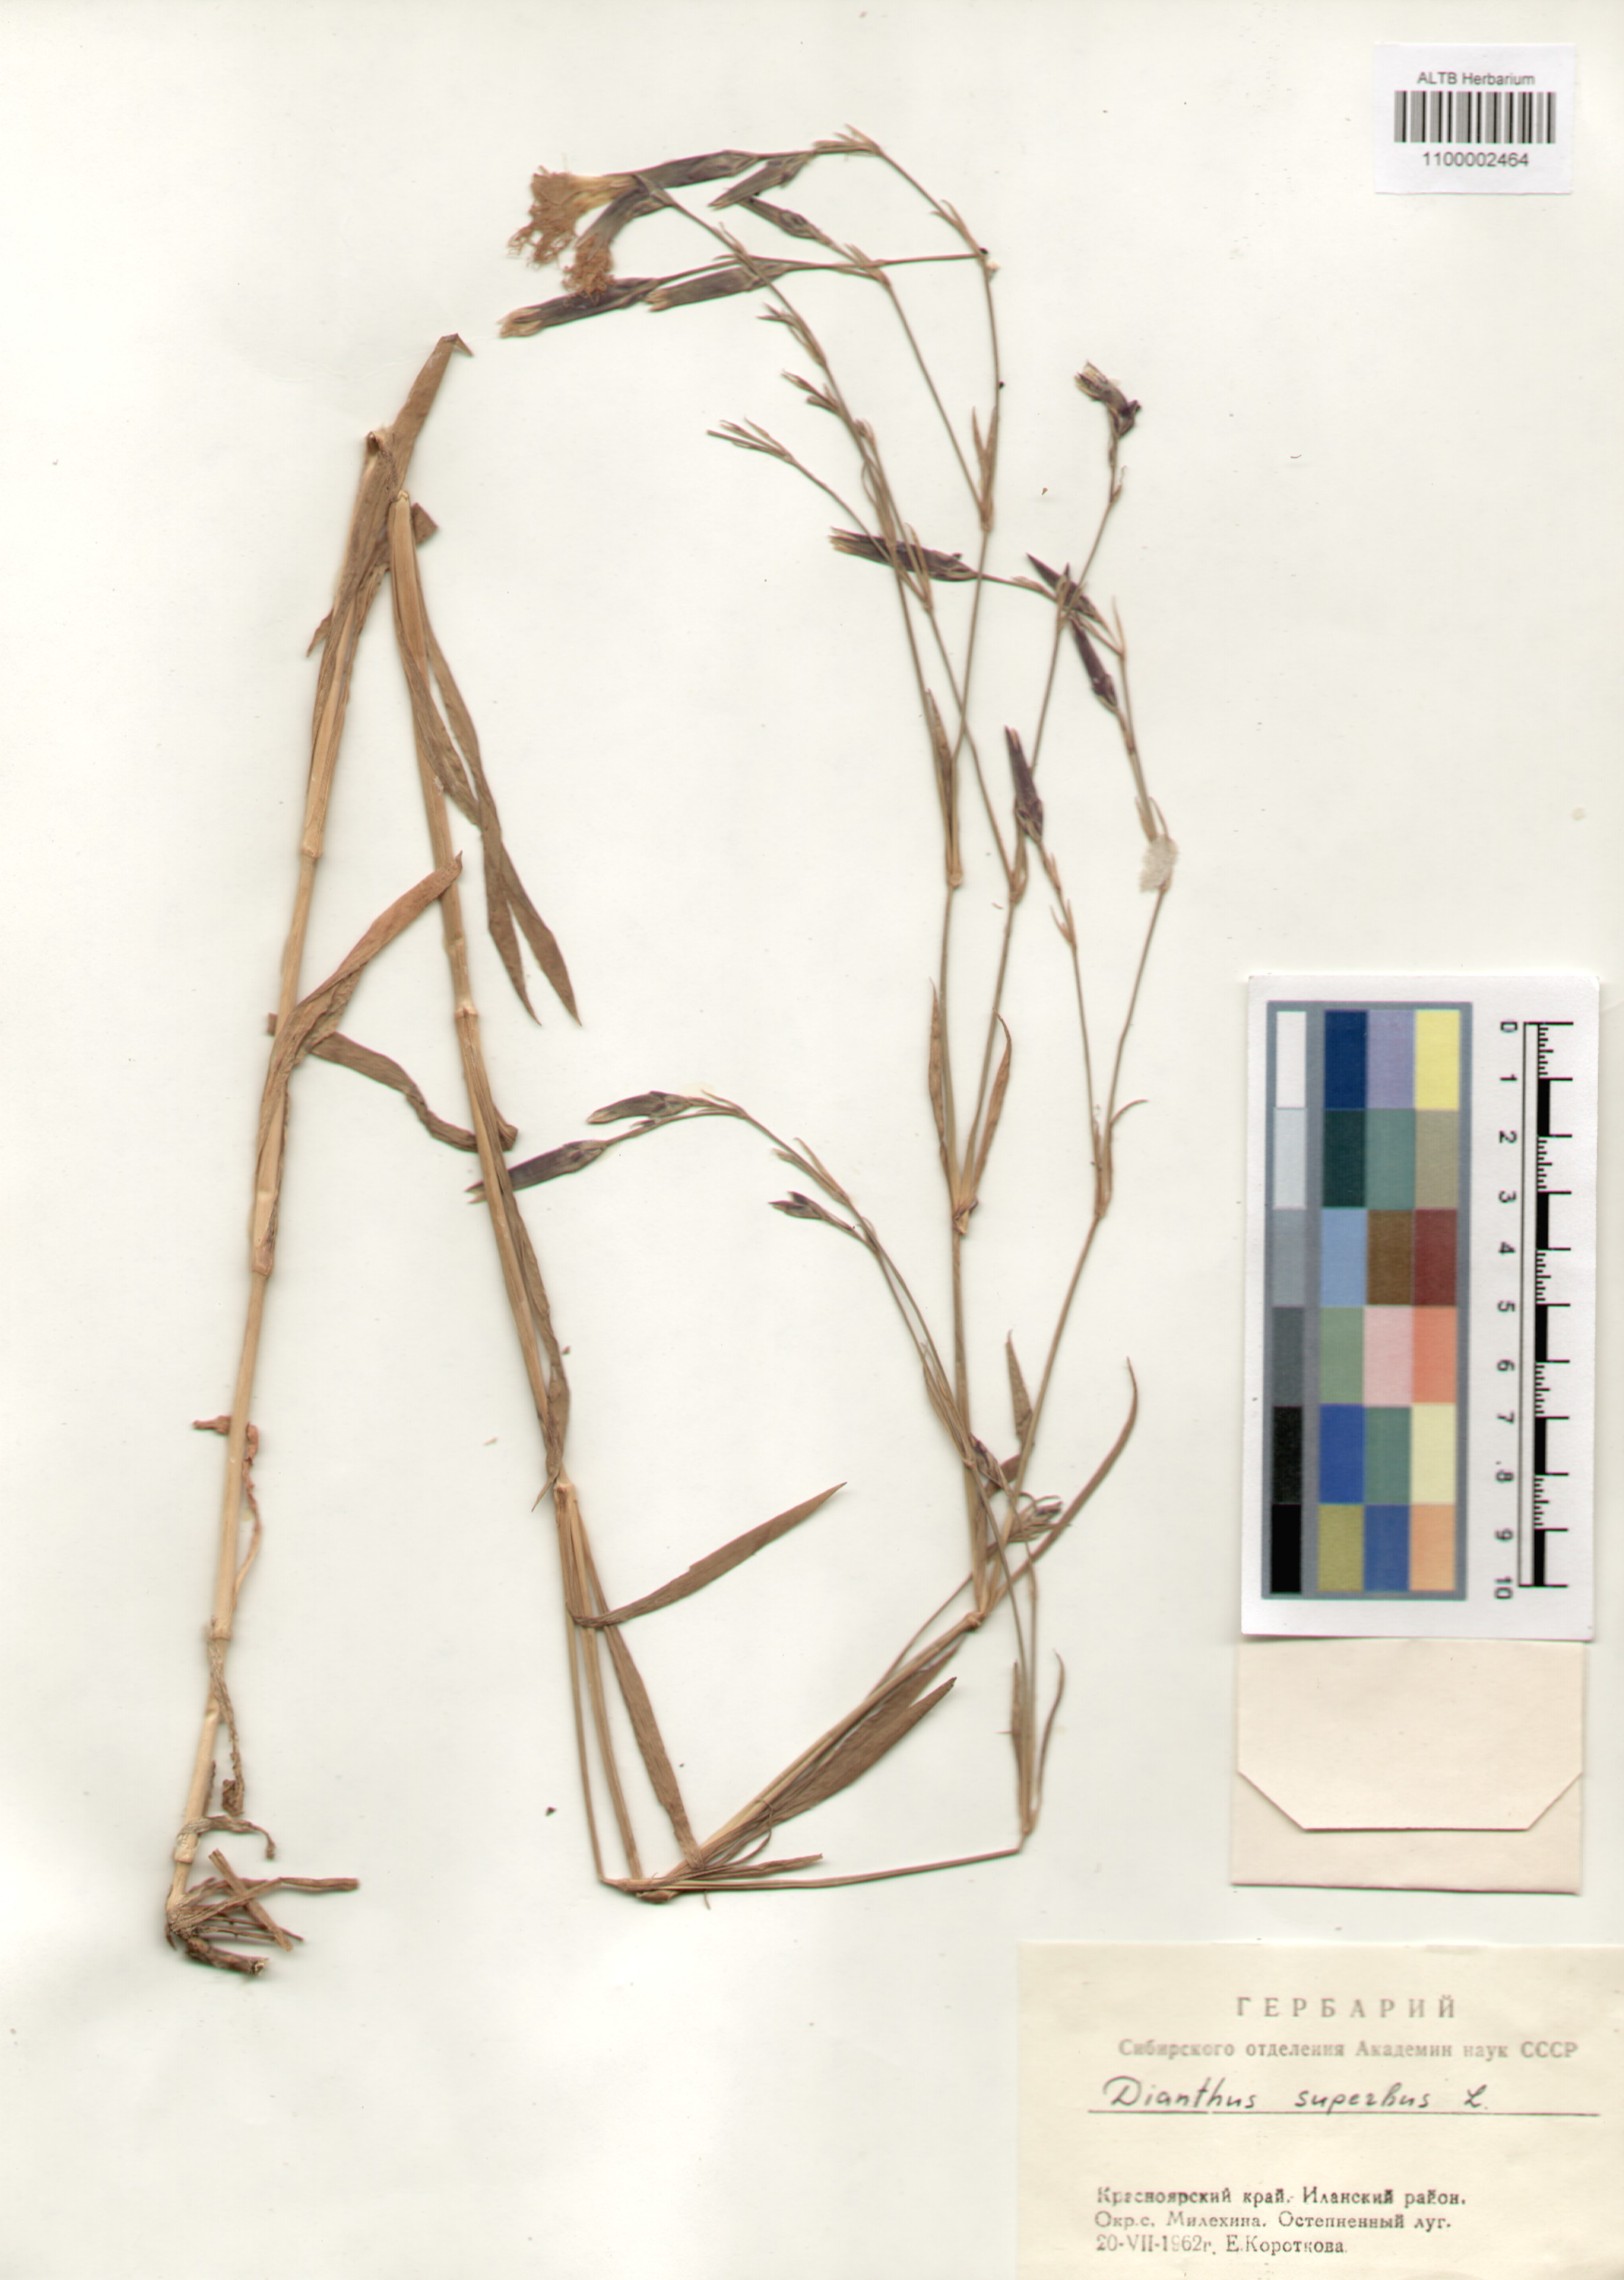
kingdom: Plantae
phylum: Tracheophyta
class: Magnoliopsida
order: Caryophyllales
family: Caryophyllaceae
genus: Dianthus
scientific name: Dianthus superbus
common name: Fringed pink
